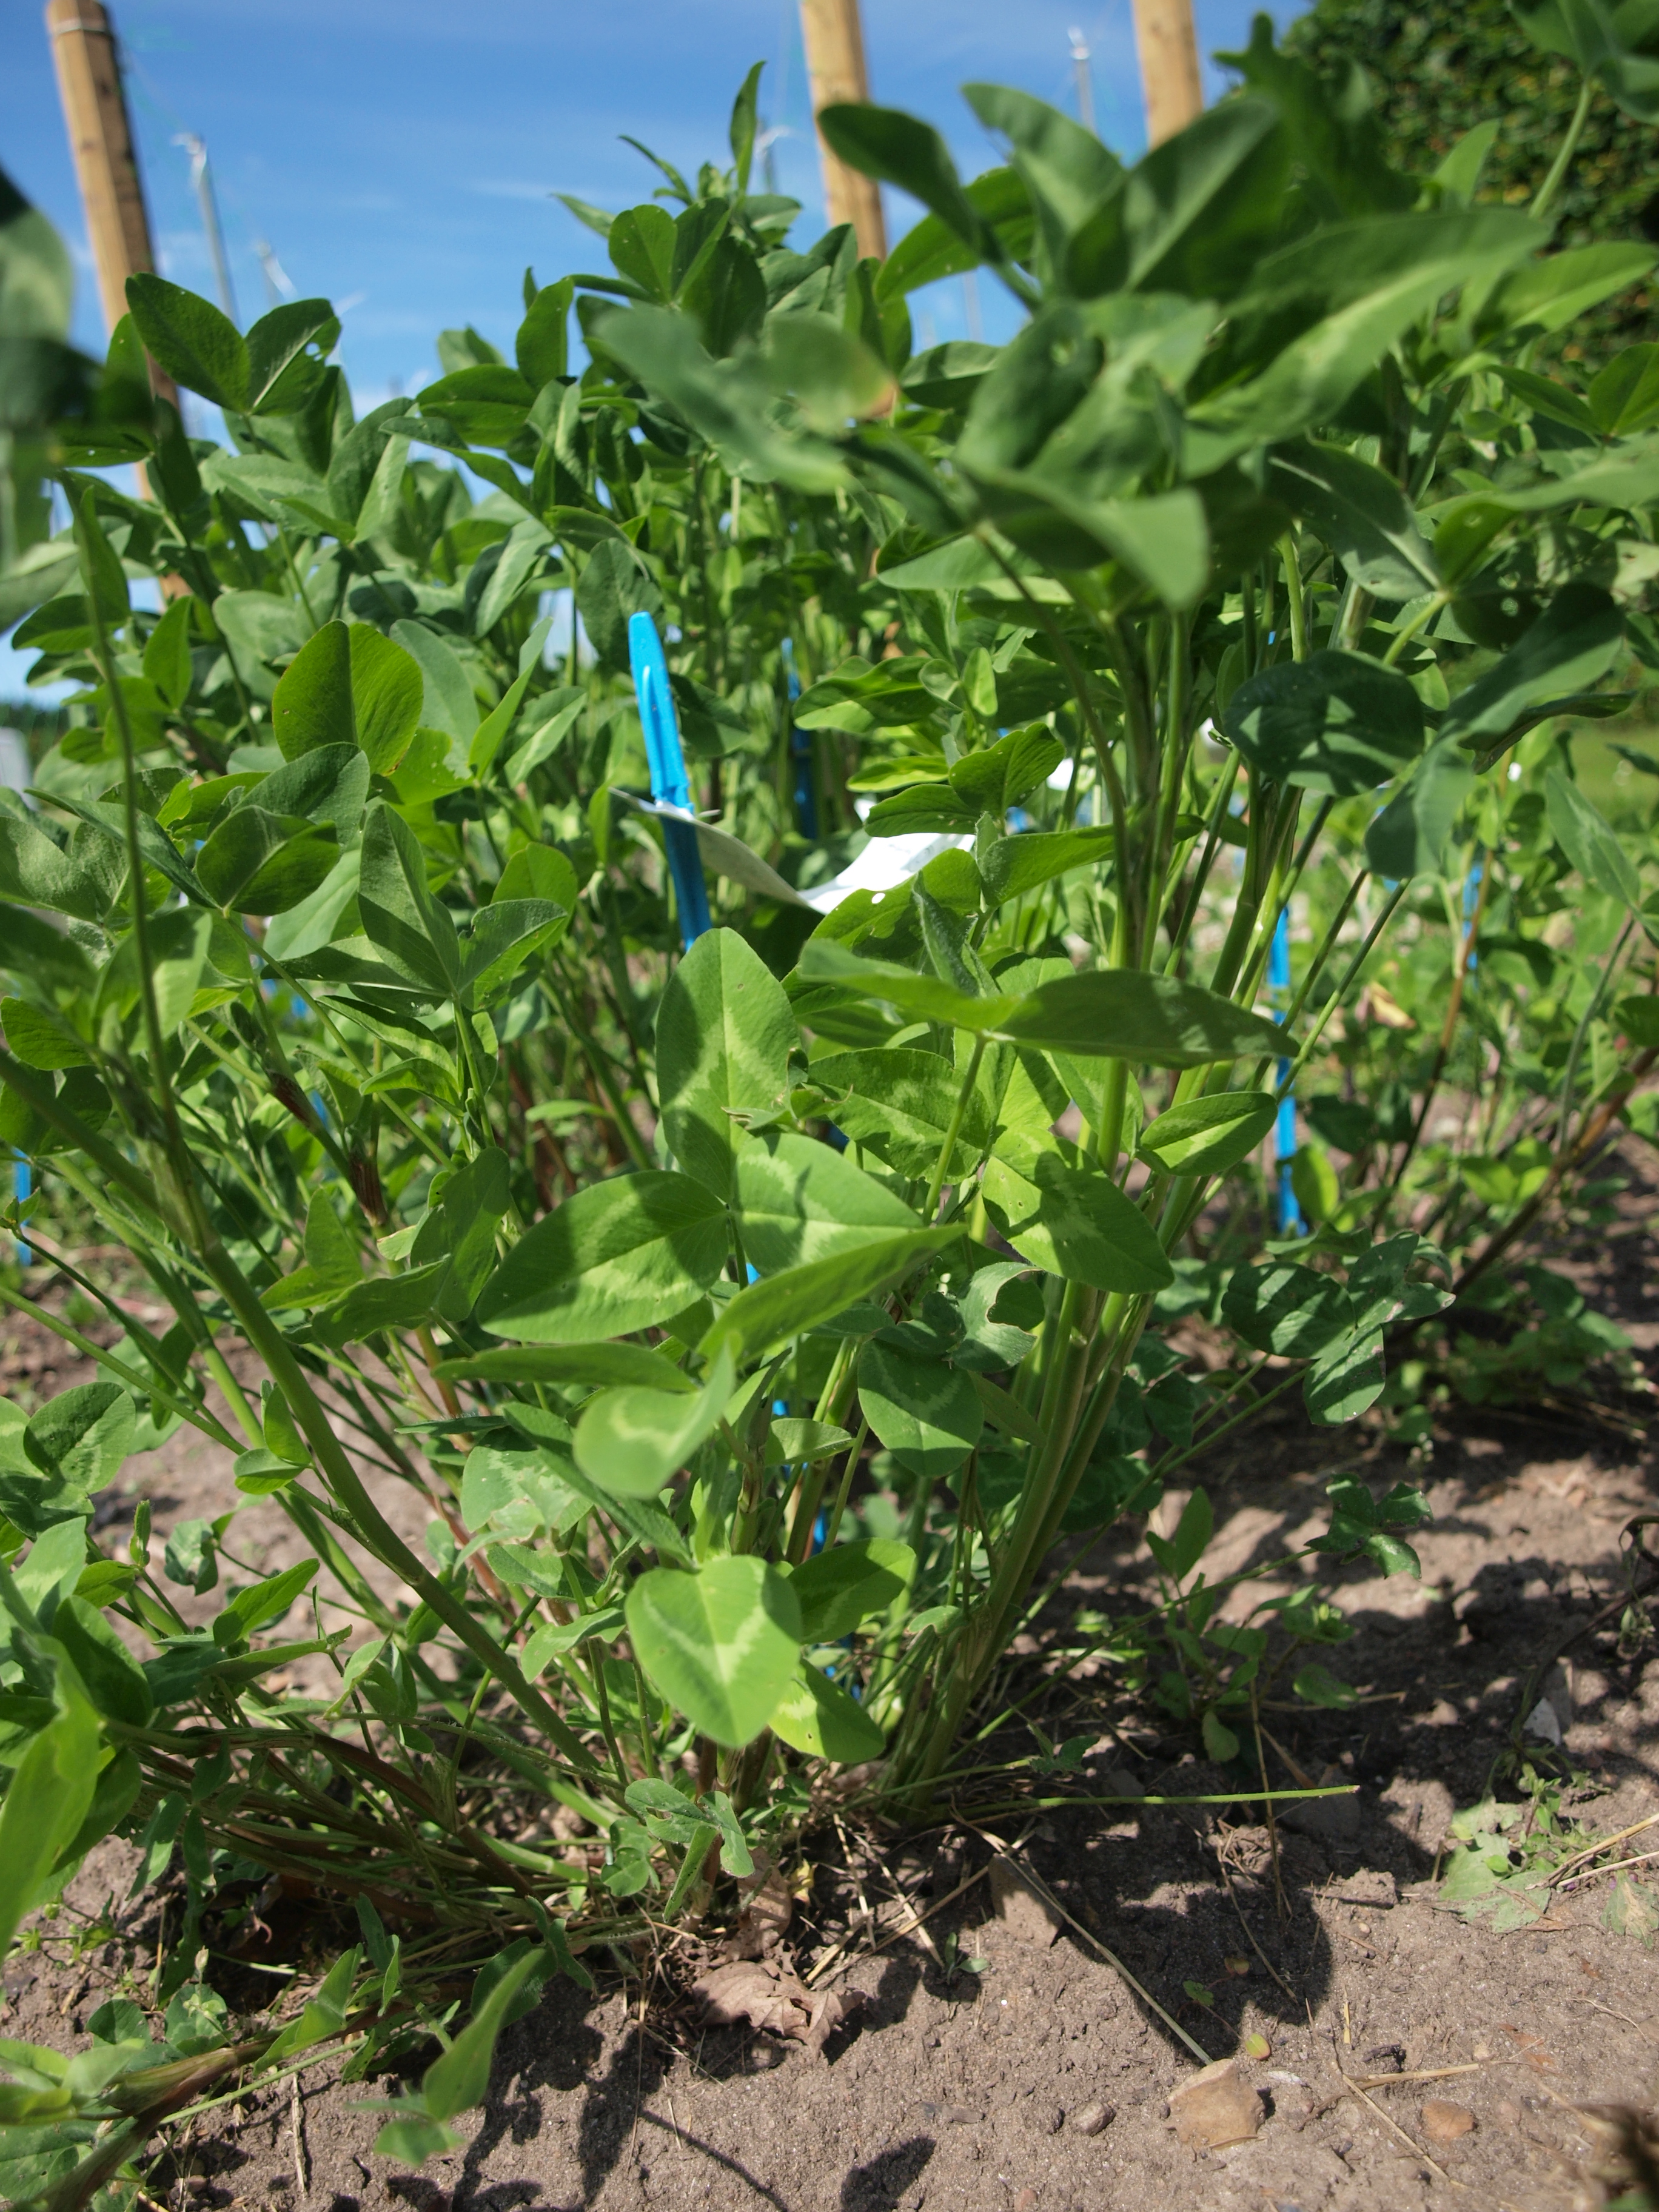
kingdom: Plantae
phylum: Tracheophyta
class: Magnoliopsida
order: Fabales
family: Fabaceae
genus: Trifolium
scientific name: Trifolium pratense
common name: Red clover
